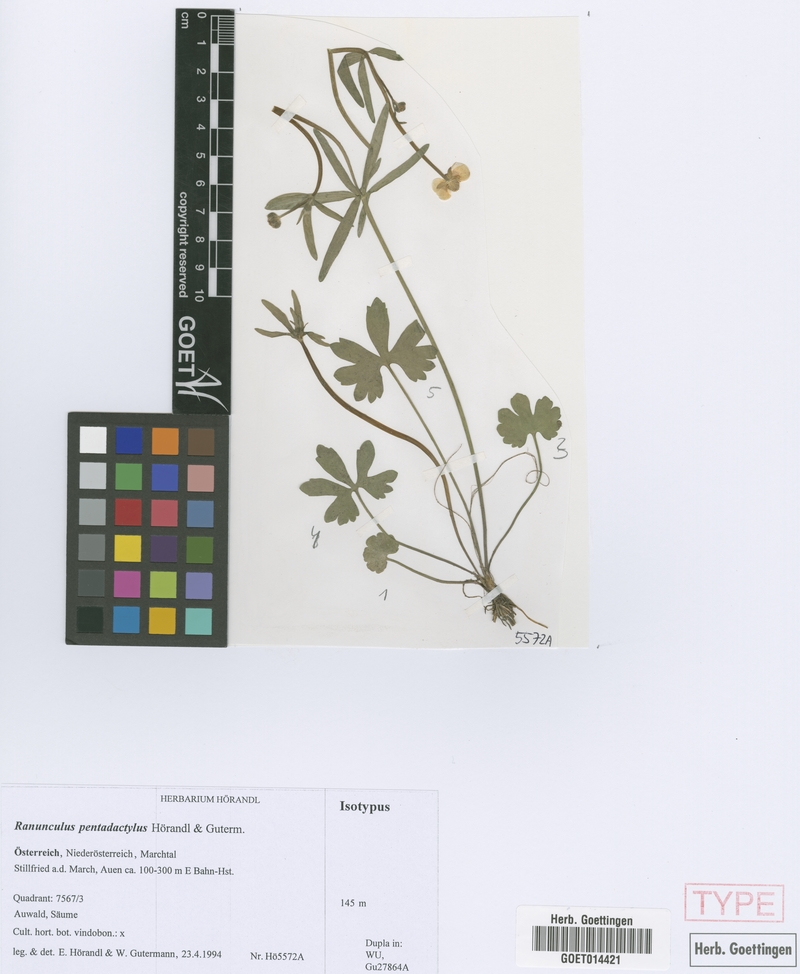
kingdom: Plantae
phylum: Tracheophyta
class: Magnoliopsida
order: Ranunculales
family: Ranunculaceae
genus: Ranunculus
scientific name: Ranunculus pentadactylus
